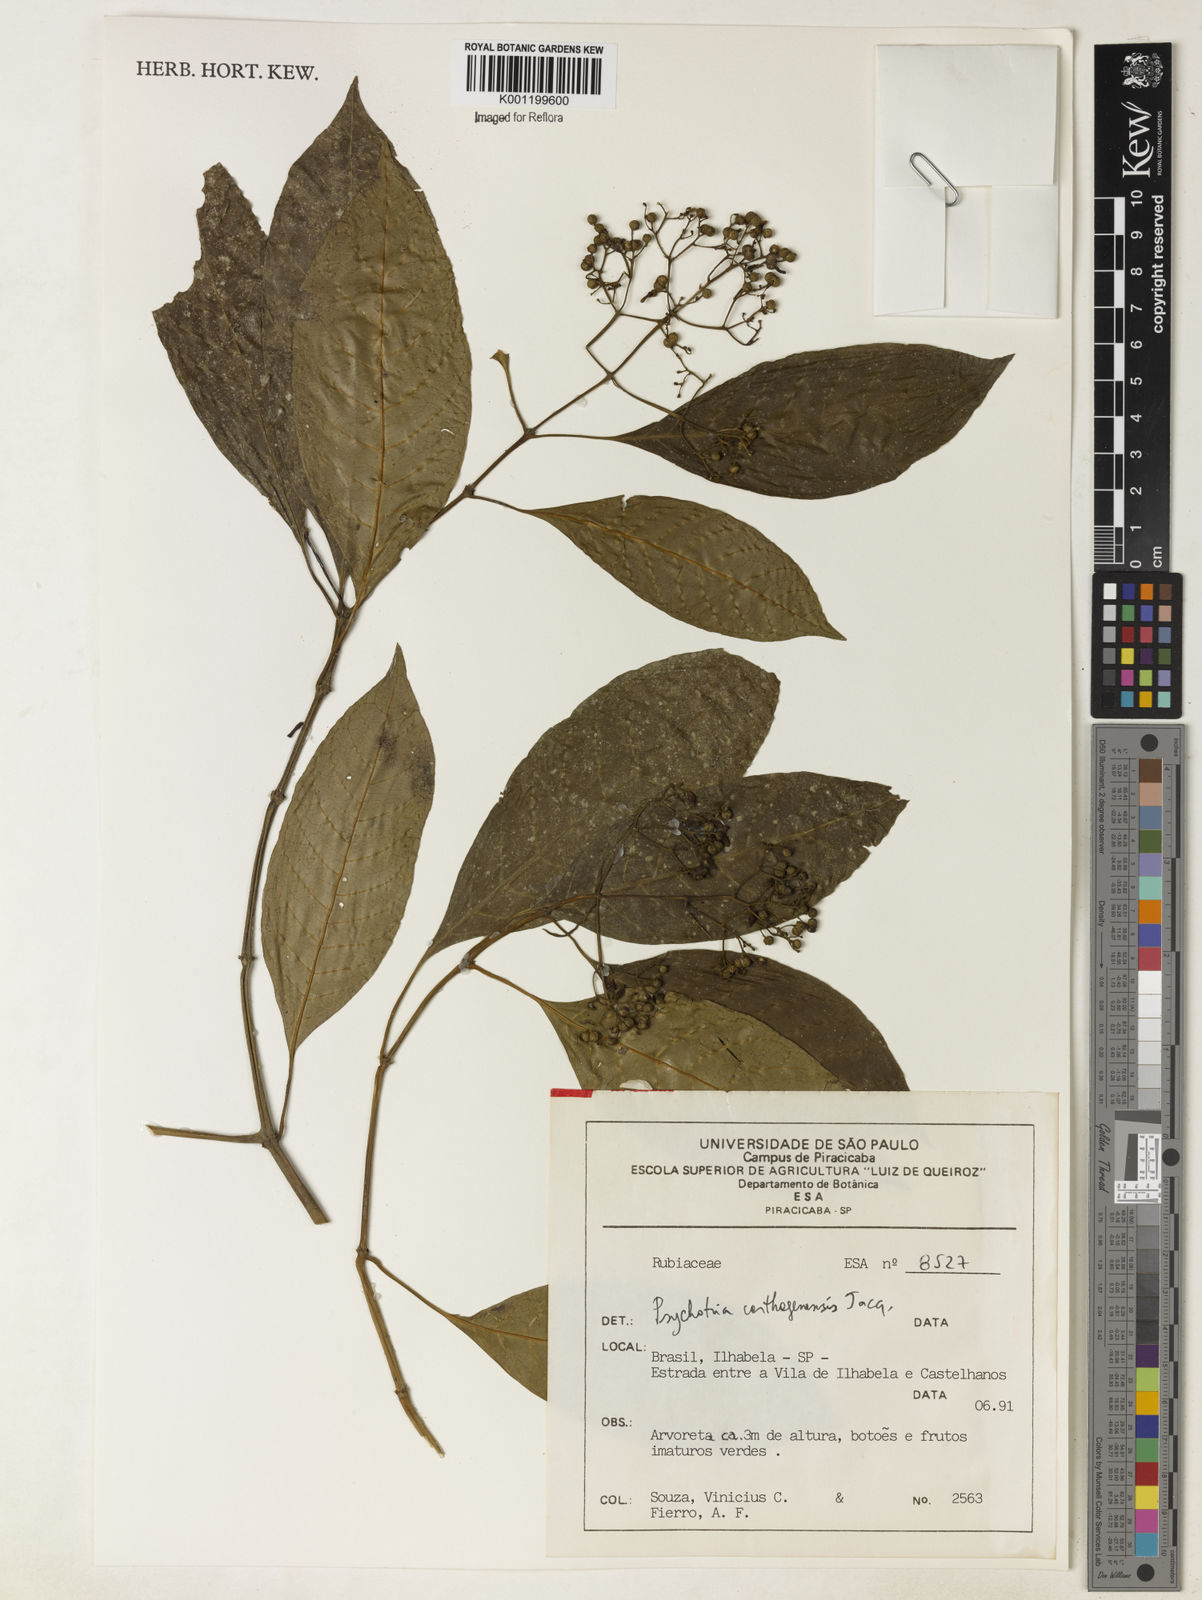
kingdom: Plantae
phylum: Tracheophyta
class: Magnoliopsida
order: Gentianales
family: Rubiaceae
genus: Psychotria
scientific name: Psychotria carthagenensis
